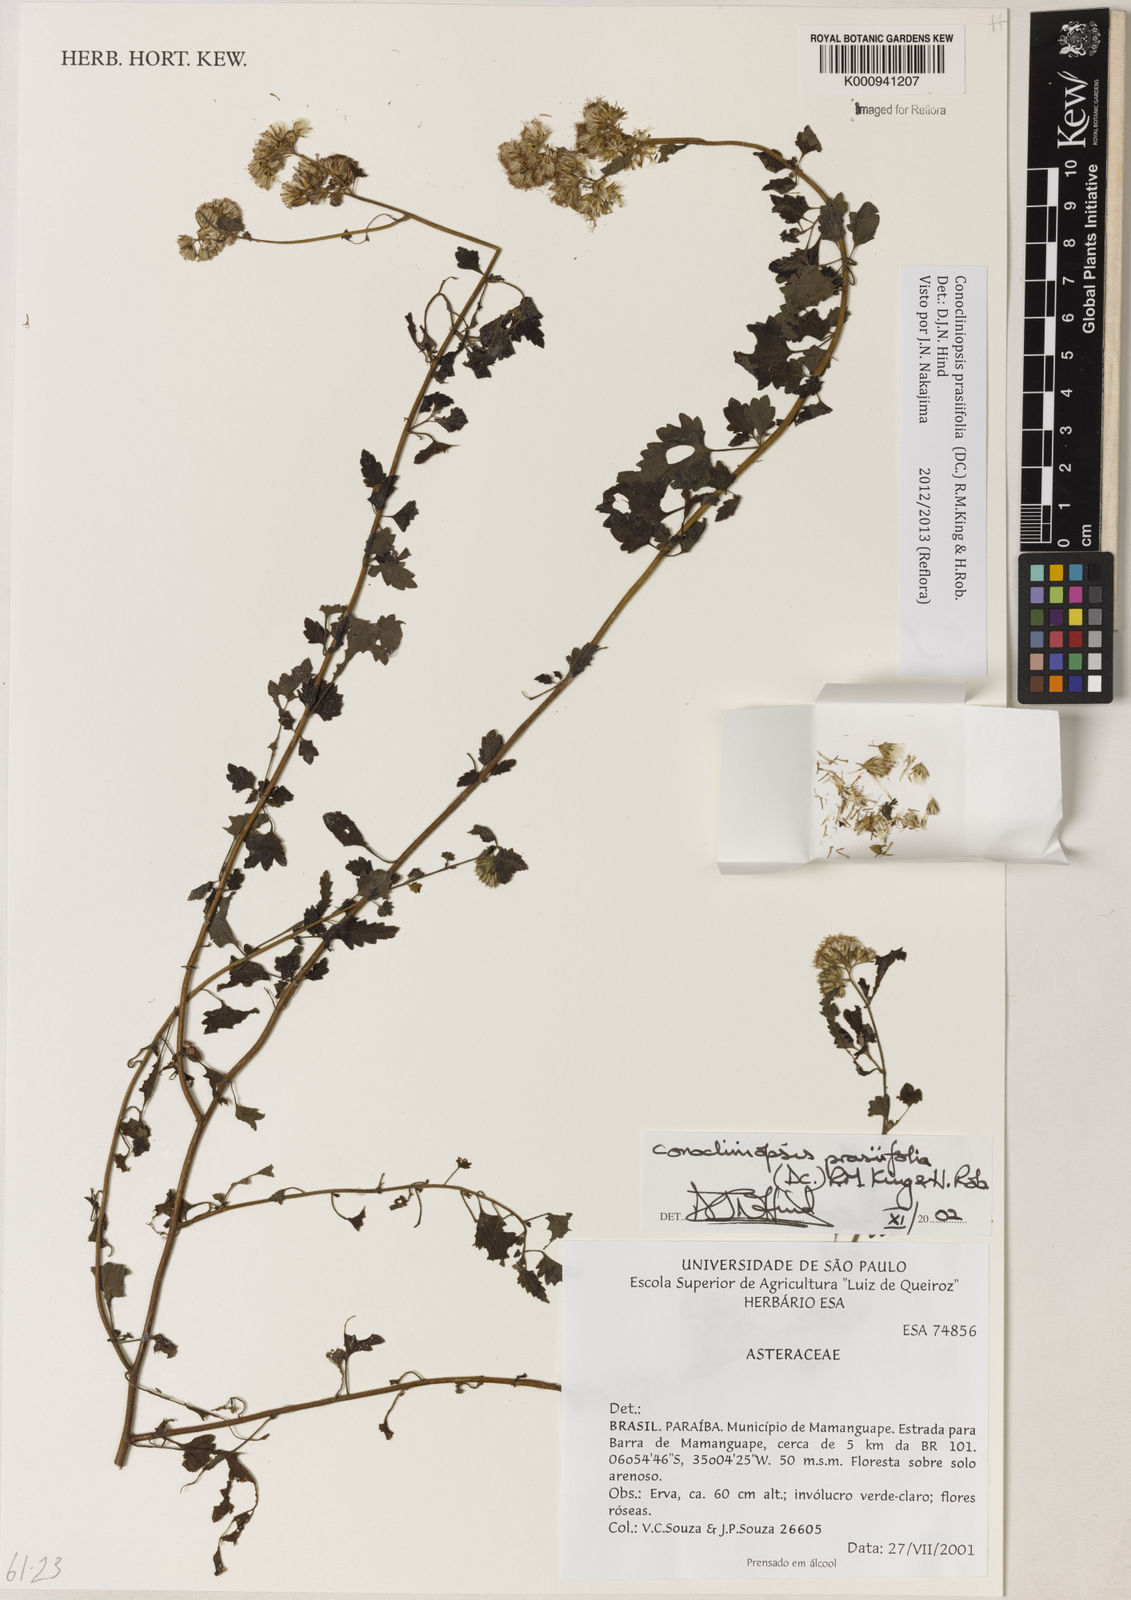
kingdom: Plantae
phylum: Tracheophyta
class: Magnoliopsida
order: Asterales
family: Asteraceae
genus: Conocliniopsis
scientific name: Conocliniopsis grossedentata
